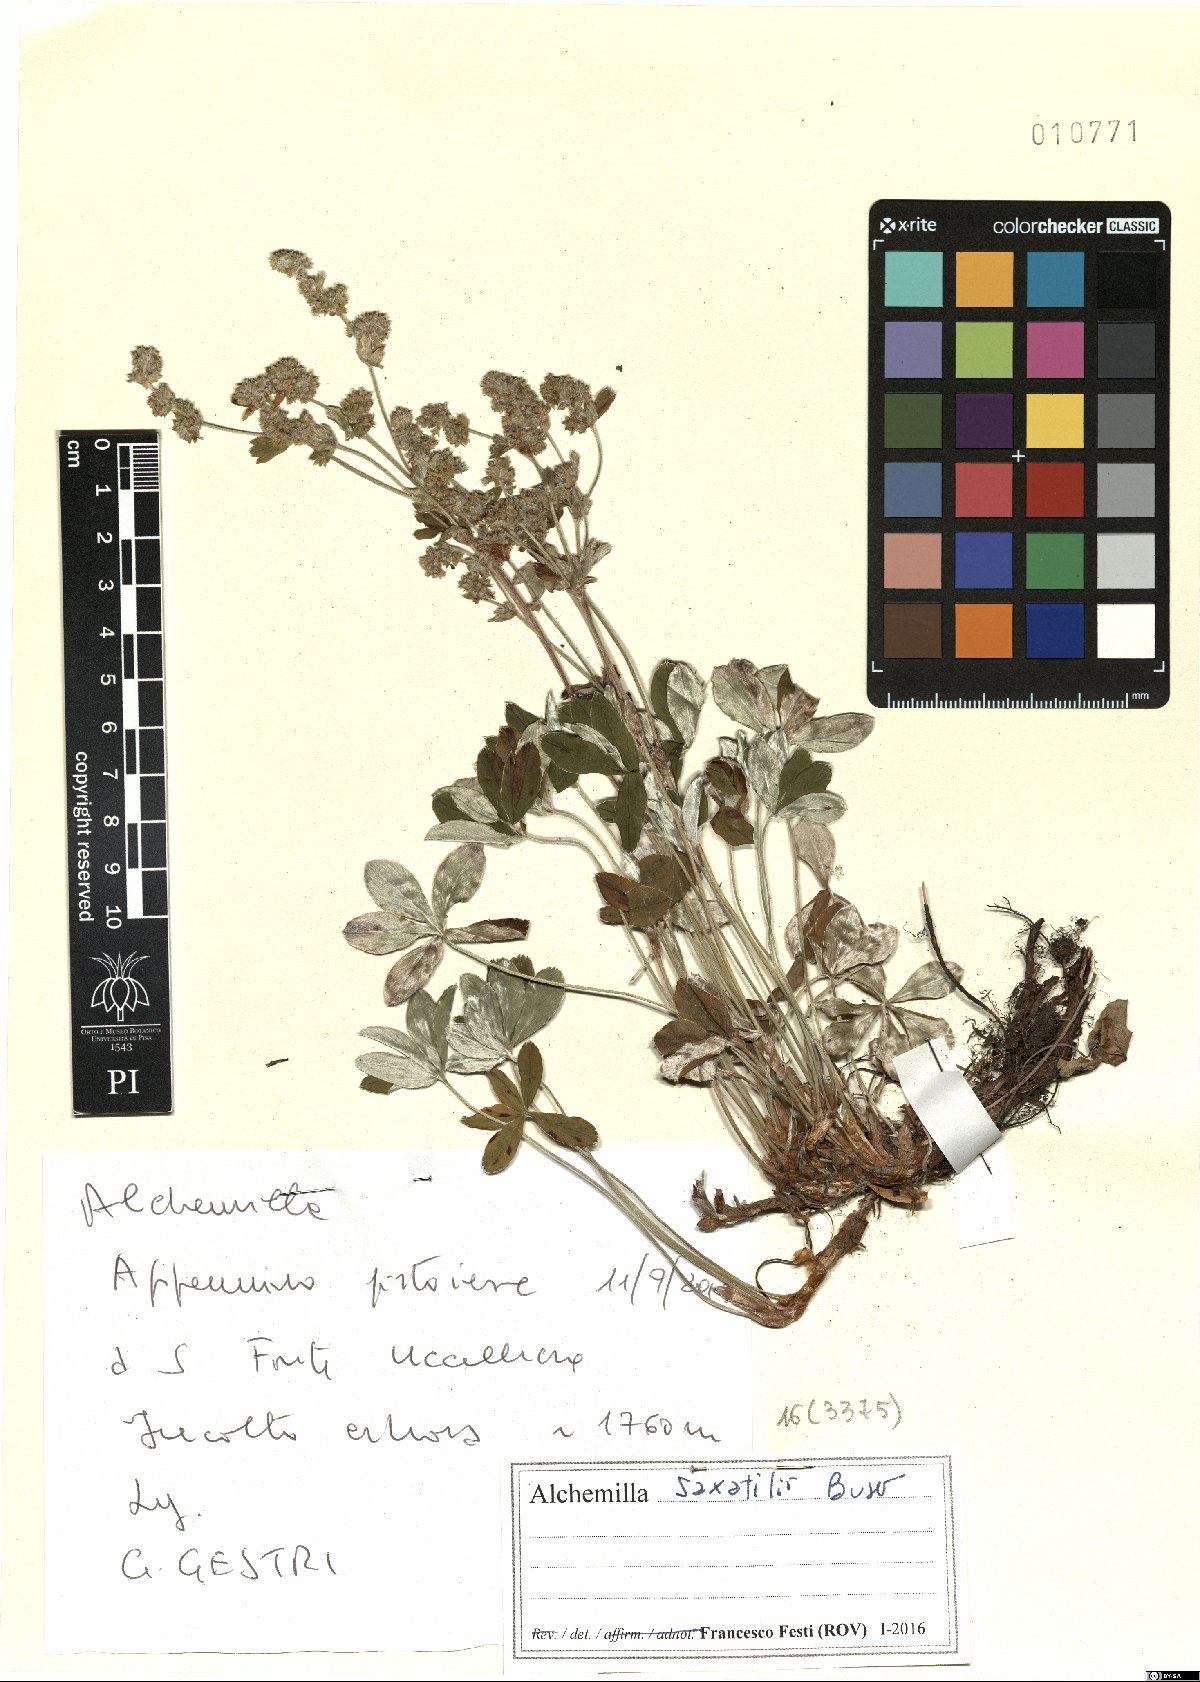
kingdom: Plantae
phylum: Tracheophyta
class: Magnoliopsida
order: Rosales
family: Rosaceae
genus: Alchemilla
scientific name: Alchemilla saxatilis
